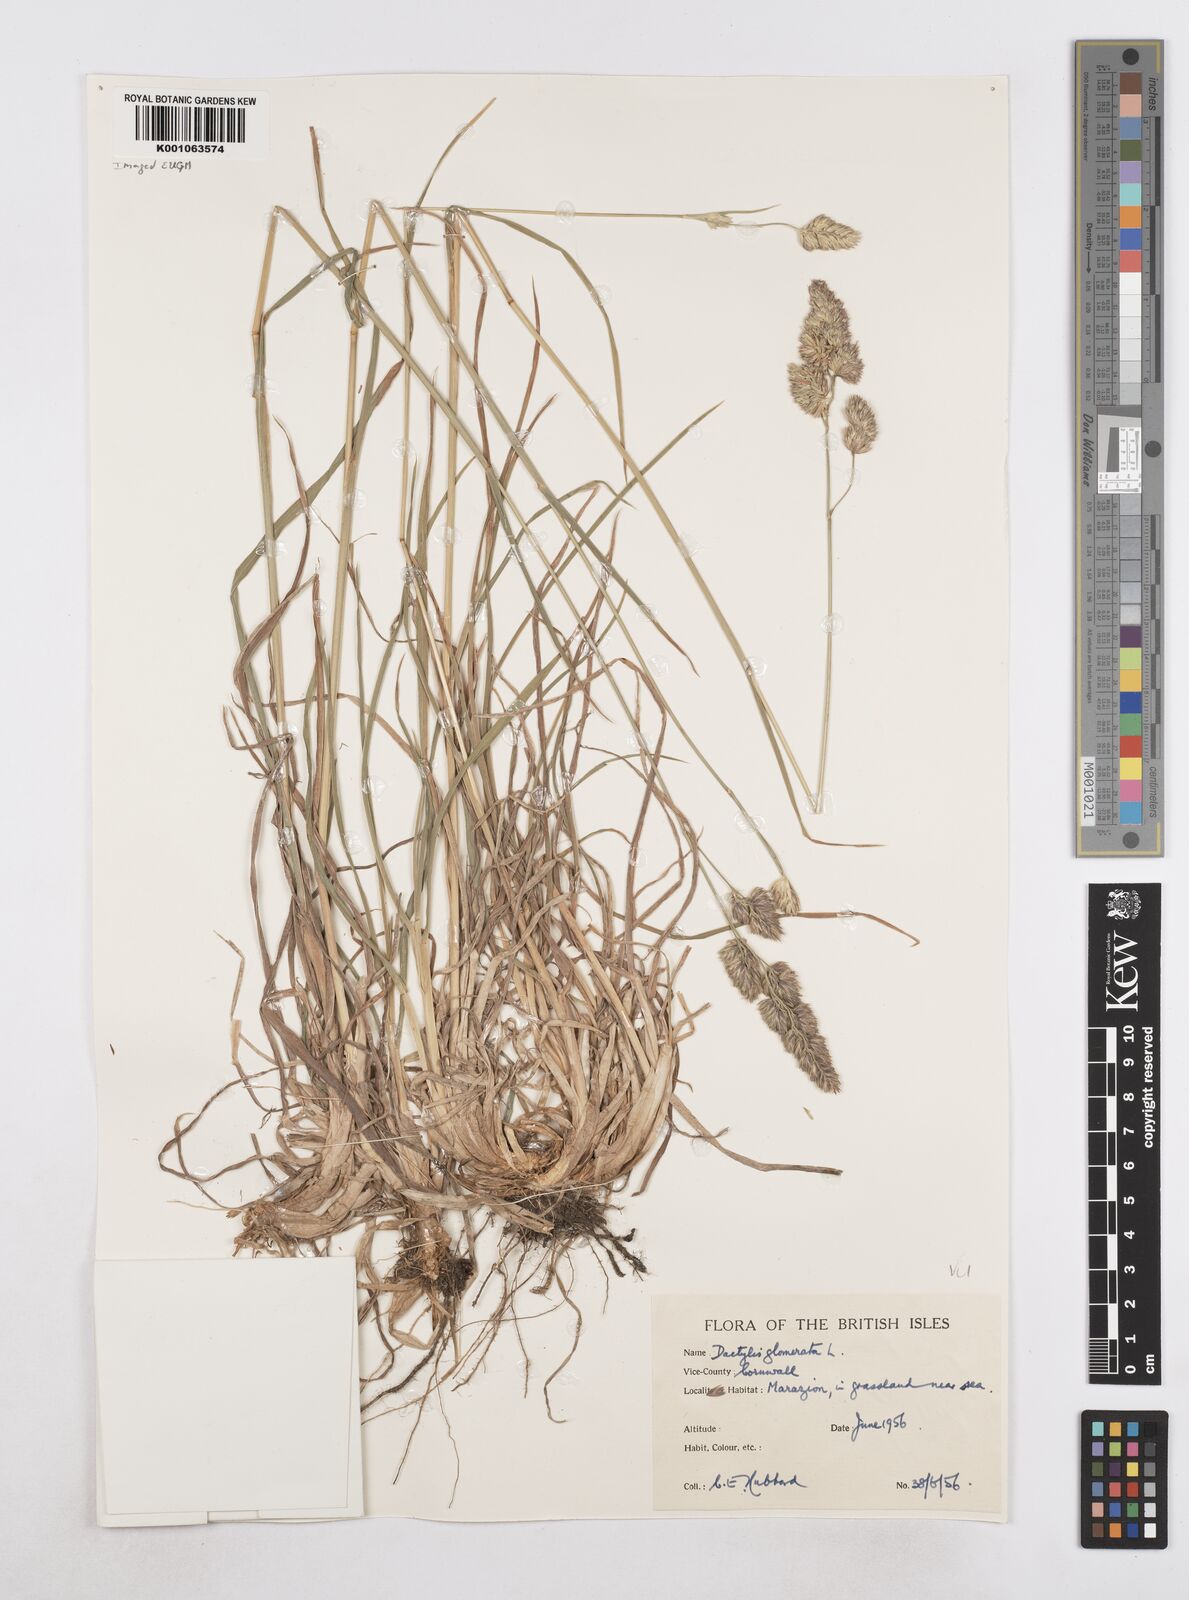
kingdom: Plantae
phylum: Tracheophyta
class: Liliopsida
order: Poales
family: Poaceae
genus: Dactylis
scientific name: Dactylis glomerata
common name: Orchardgrass
